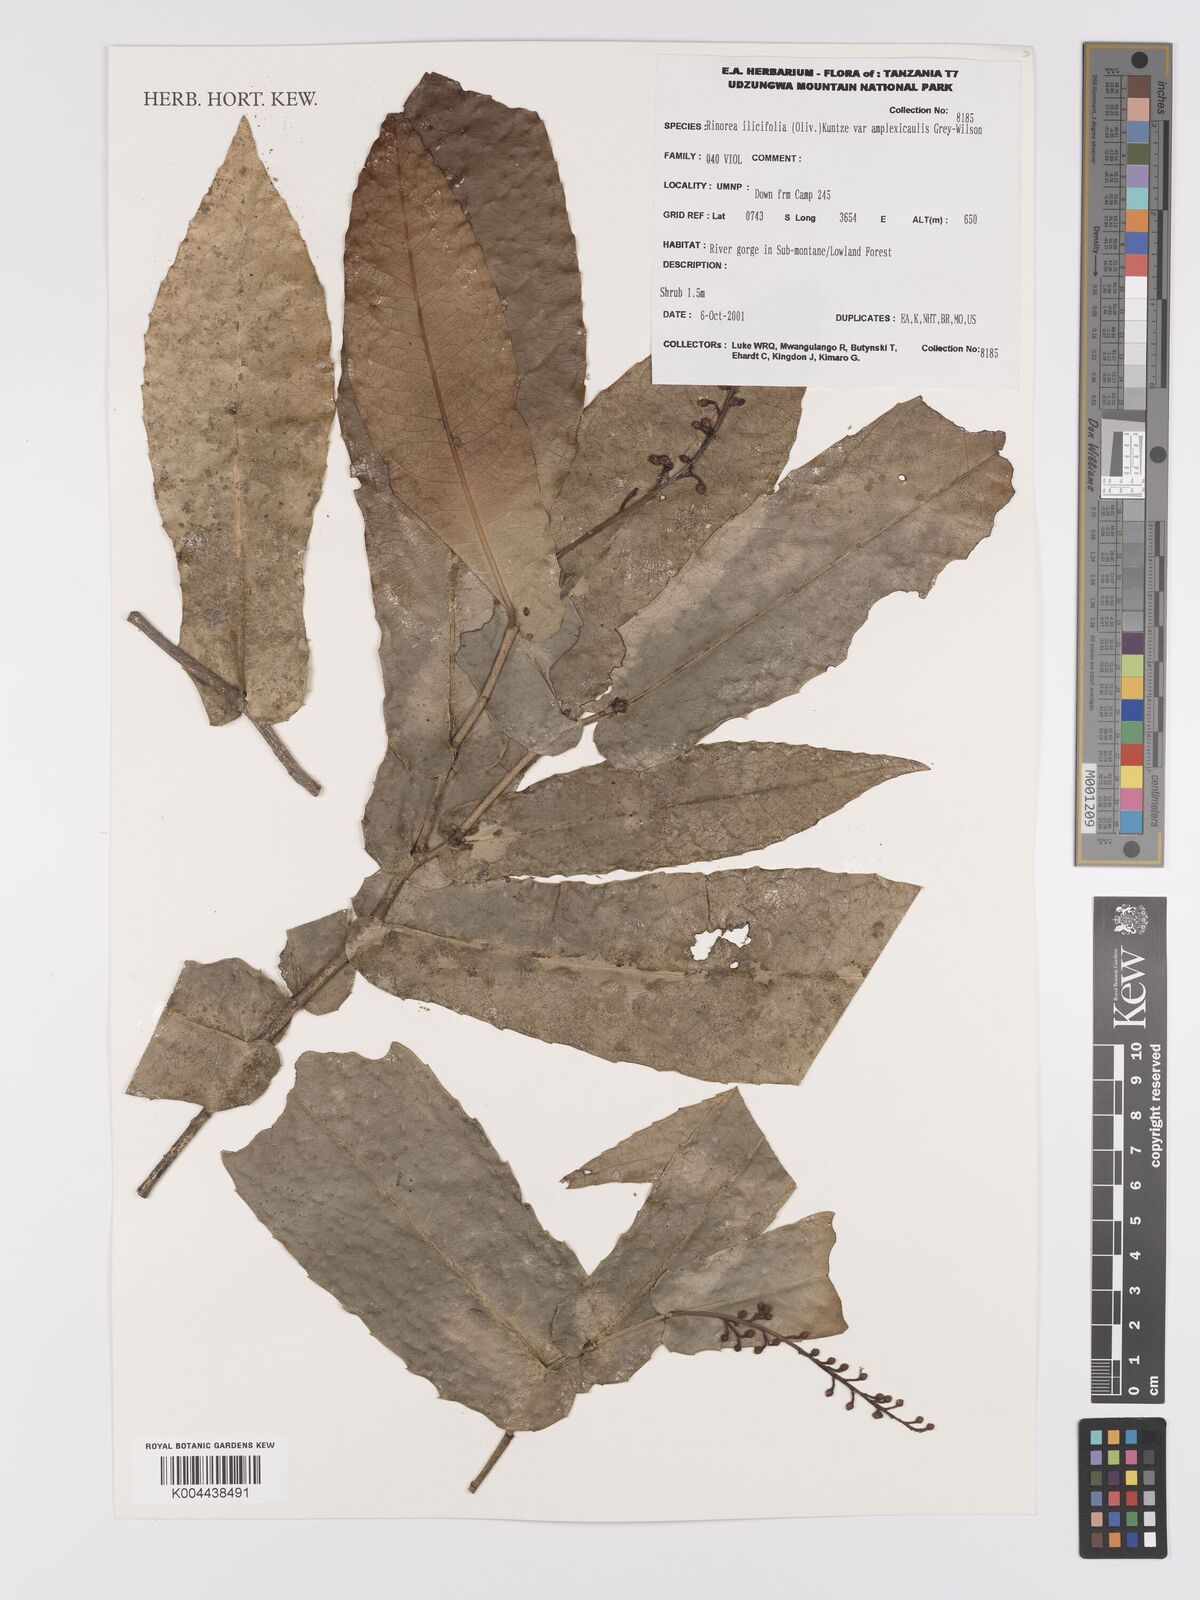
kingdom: Plantae
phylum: Tracheophyta
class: Magnoliopsida
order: Malpighiales
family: Violaceae
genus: Rinorea
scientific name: Rinorea ilicifolia
